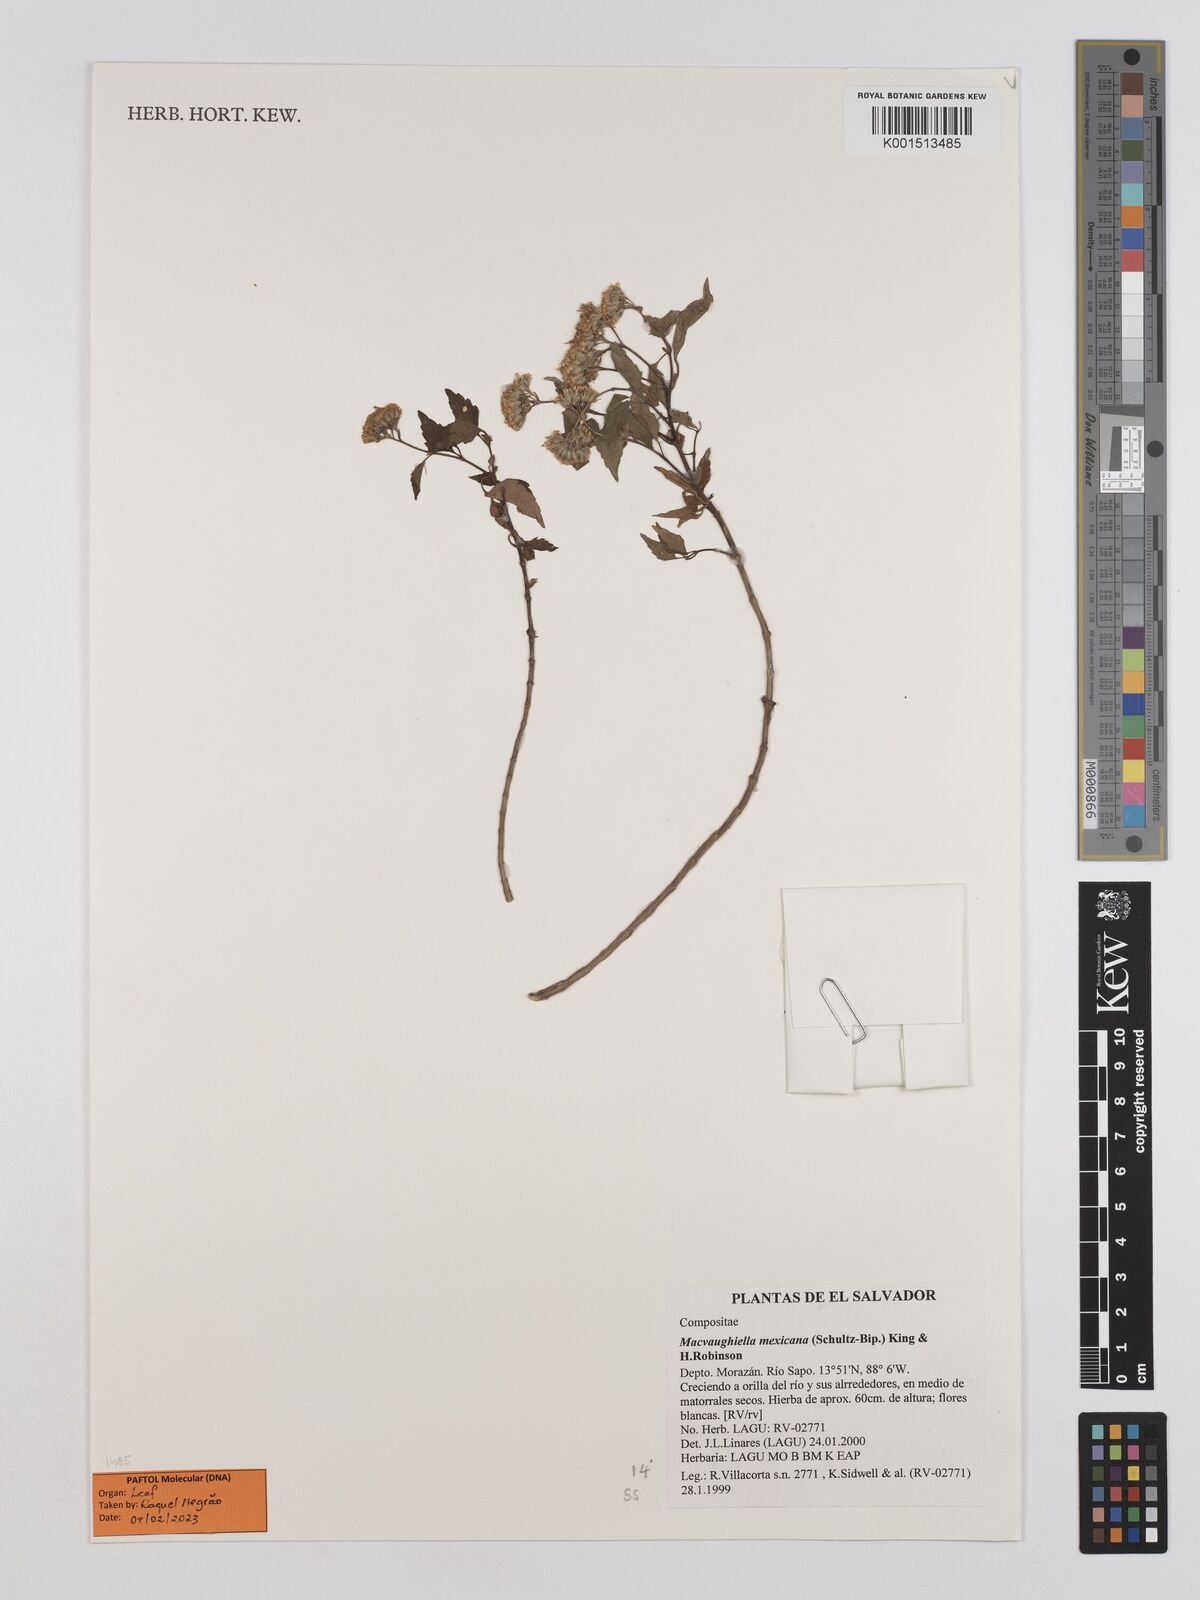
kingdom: Plantae
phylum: Tracheophyta
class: Magnoliopsida
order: Asterales
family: Asteraceae
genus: Macvaughiella
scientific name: Macvaughiella mexicana
